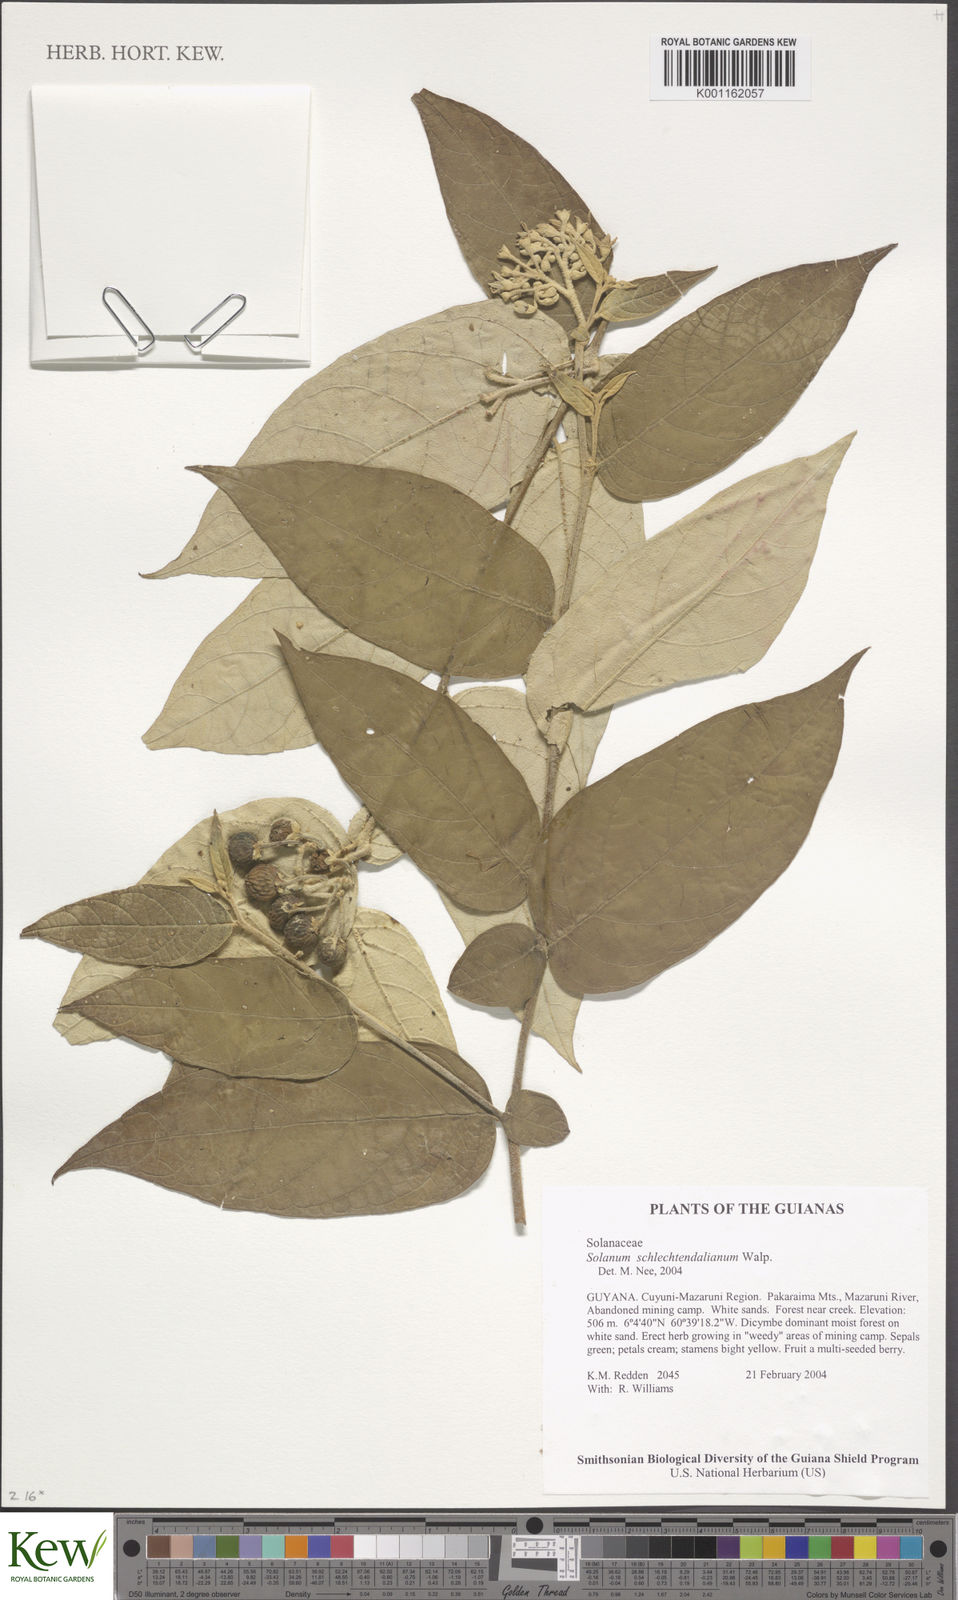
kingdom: Plantae
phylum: Tracheophyta
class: Magnoliopsida
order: Solanales
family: Solanaceae
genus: Solanum
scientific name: Solanum schlechtendalianum
